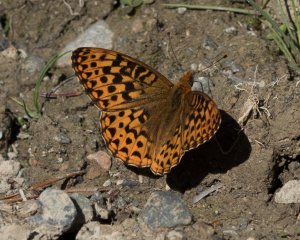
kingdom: Animalia
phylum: Arthropoda
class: Insecta
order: Lepidoptera
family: Nymphalidae
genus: Speyeria
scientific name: Speyeria hydaspe
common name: Hydaspe Fritillary
